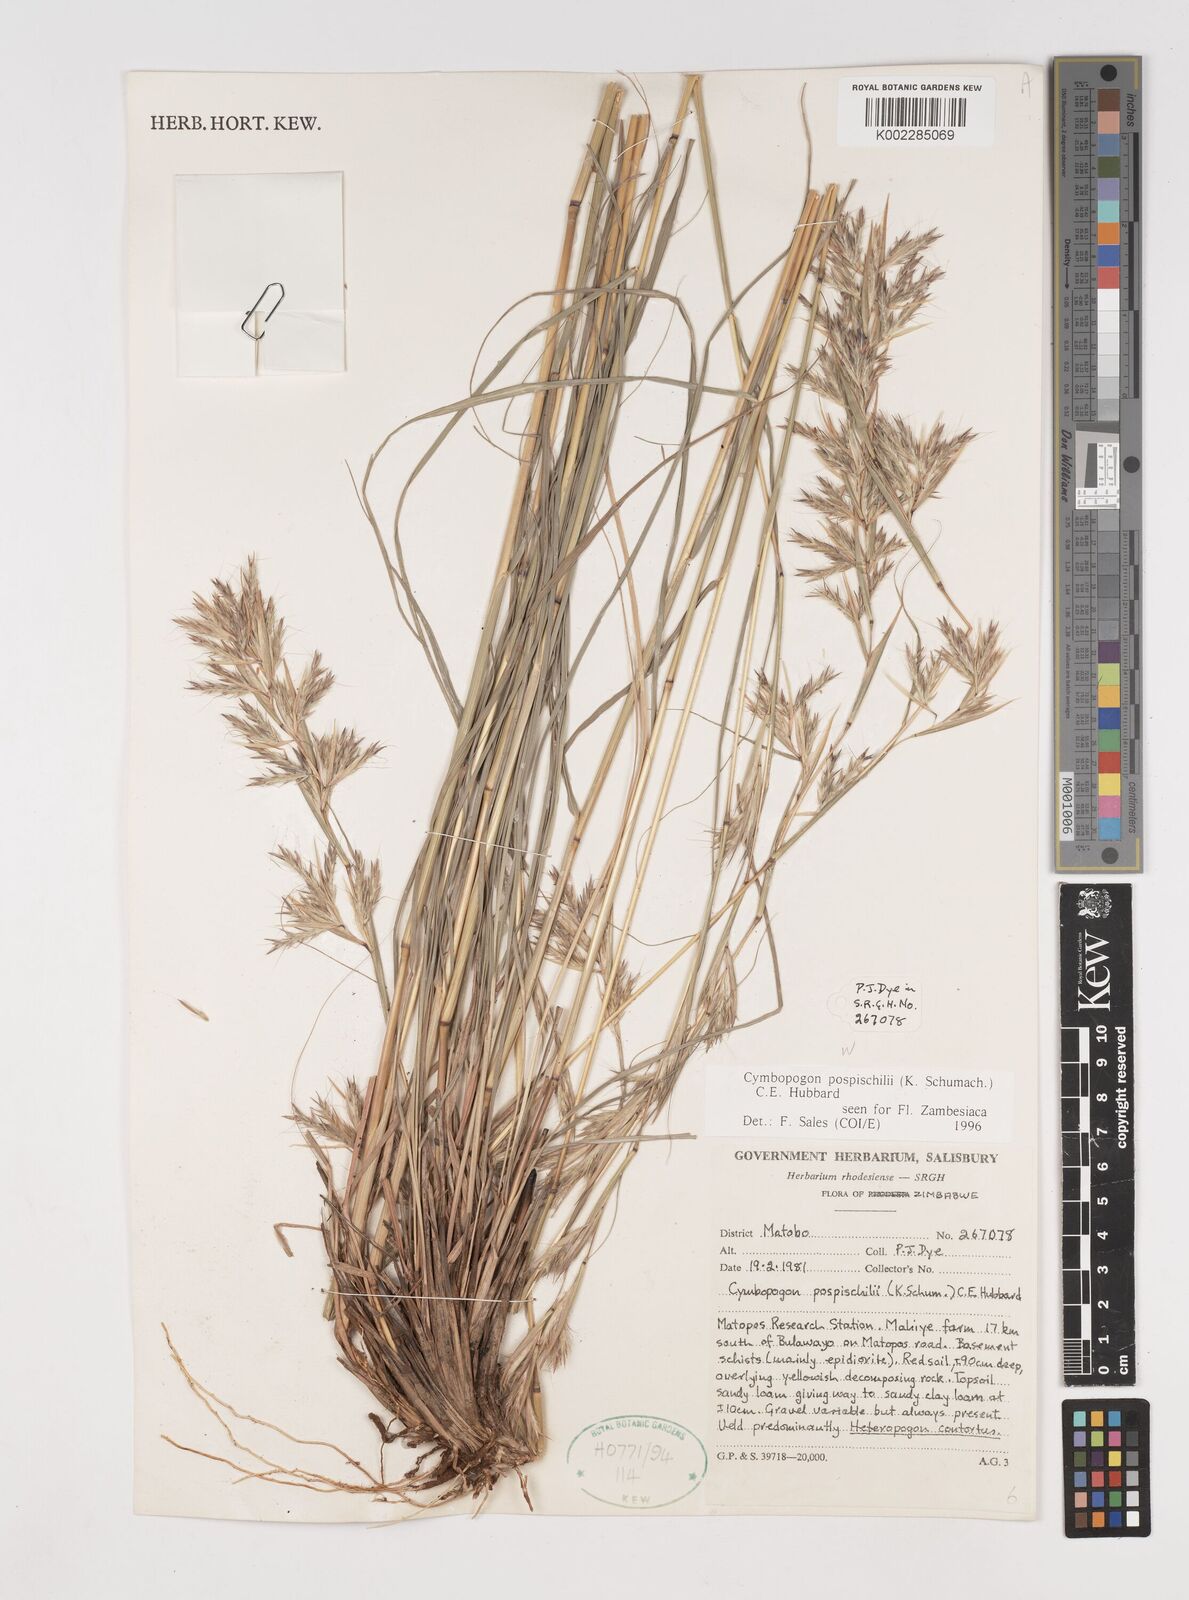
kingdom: Plantae
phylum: Tracheophyta
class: Liliopsida
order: Poales
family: Poaceae
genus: Cymbopogon
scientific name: Cymbopogon pospischilii
